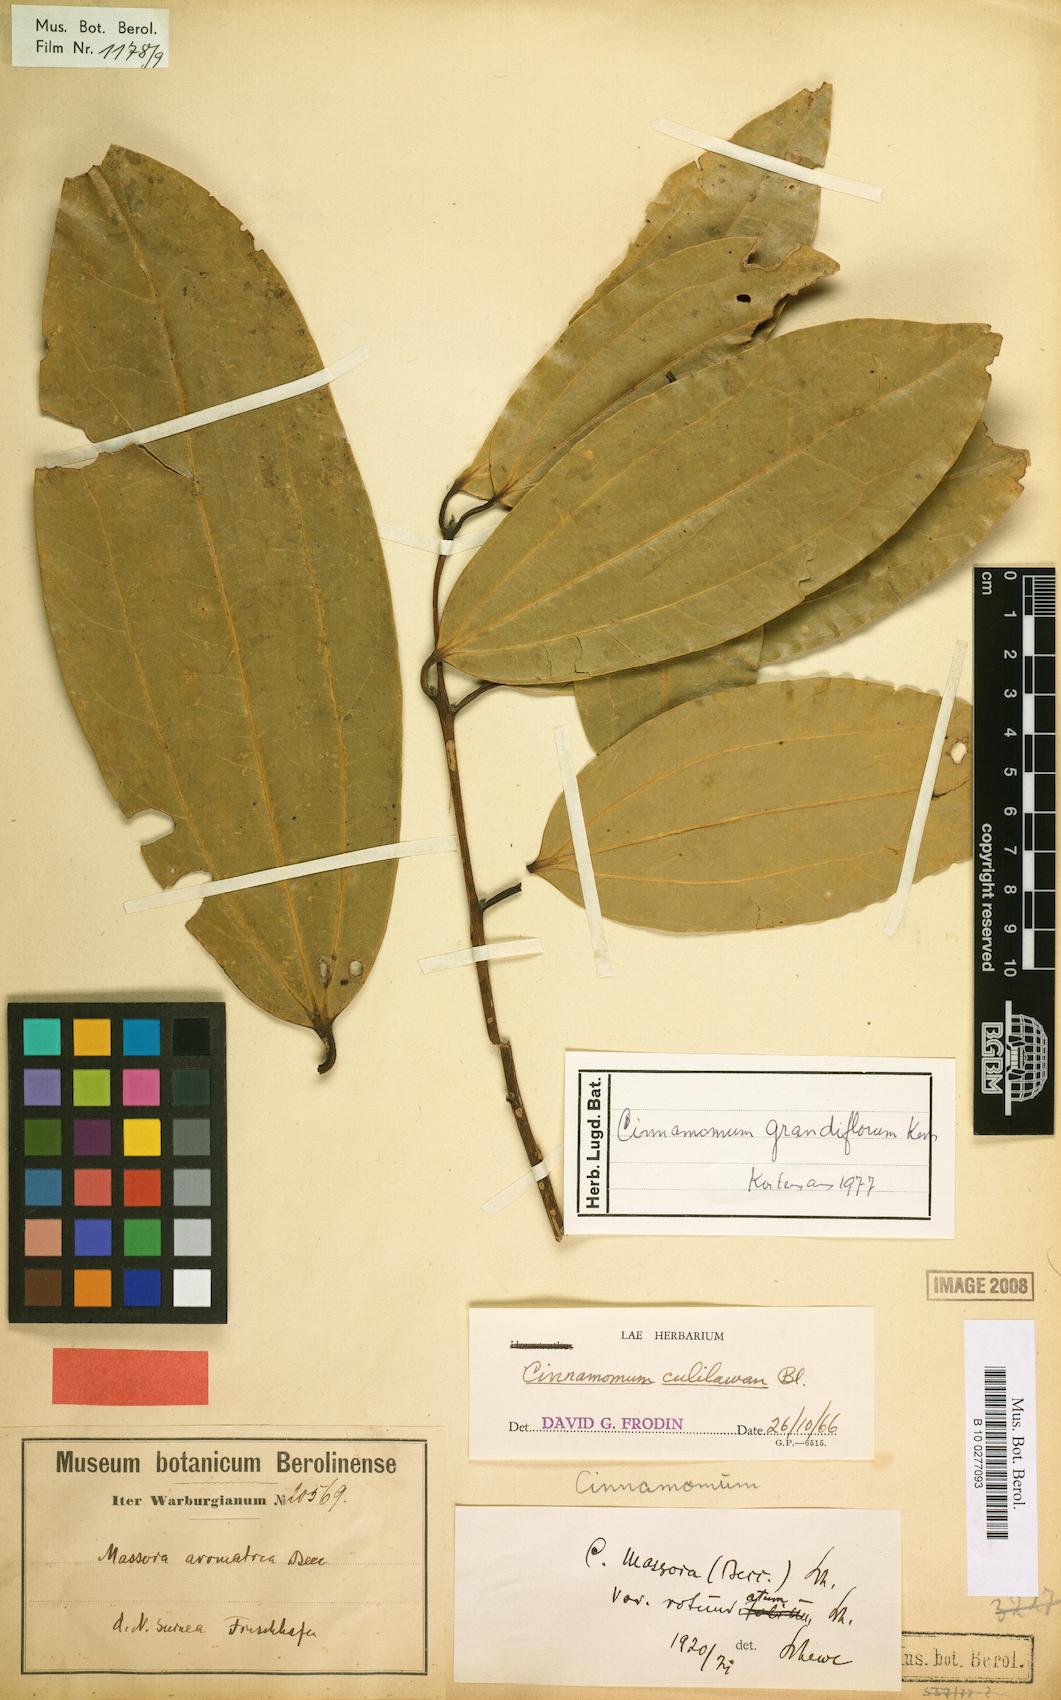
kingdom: Plantae
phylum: Tracheophyta
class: Magnoliopsida
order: Laurales
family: Lauraceae
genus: Cinnamomum
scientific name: Cinnamomum grandiflorum
